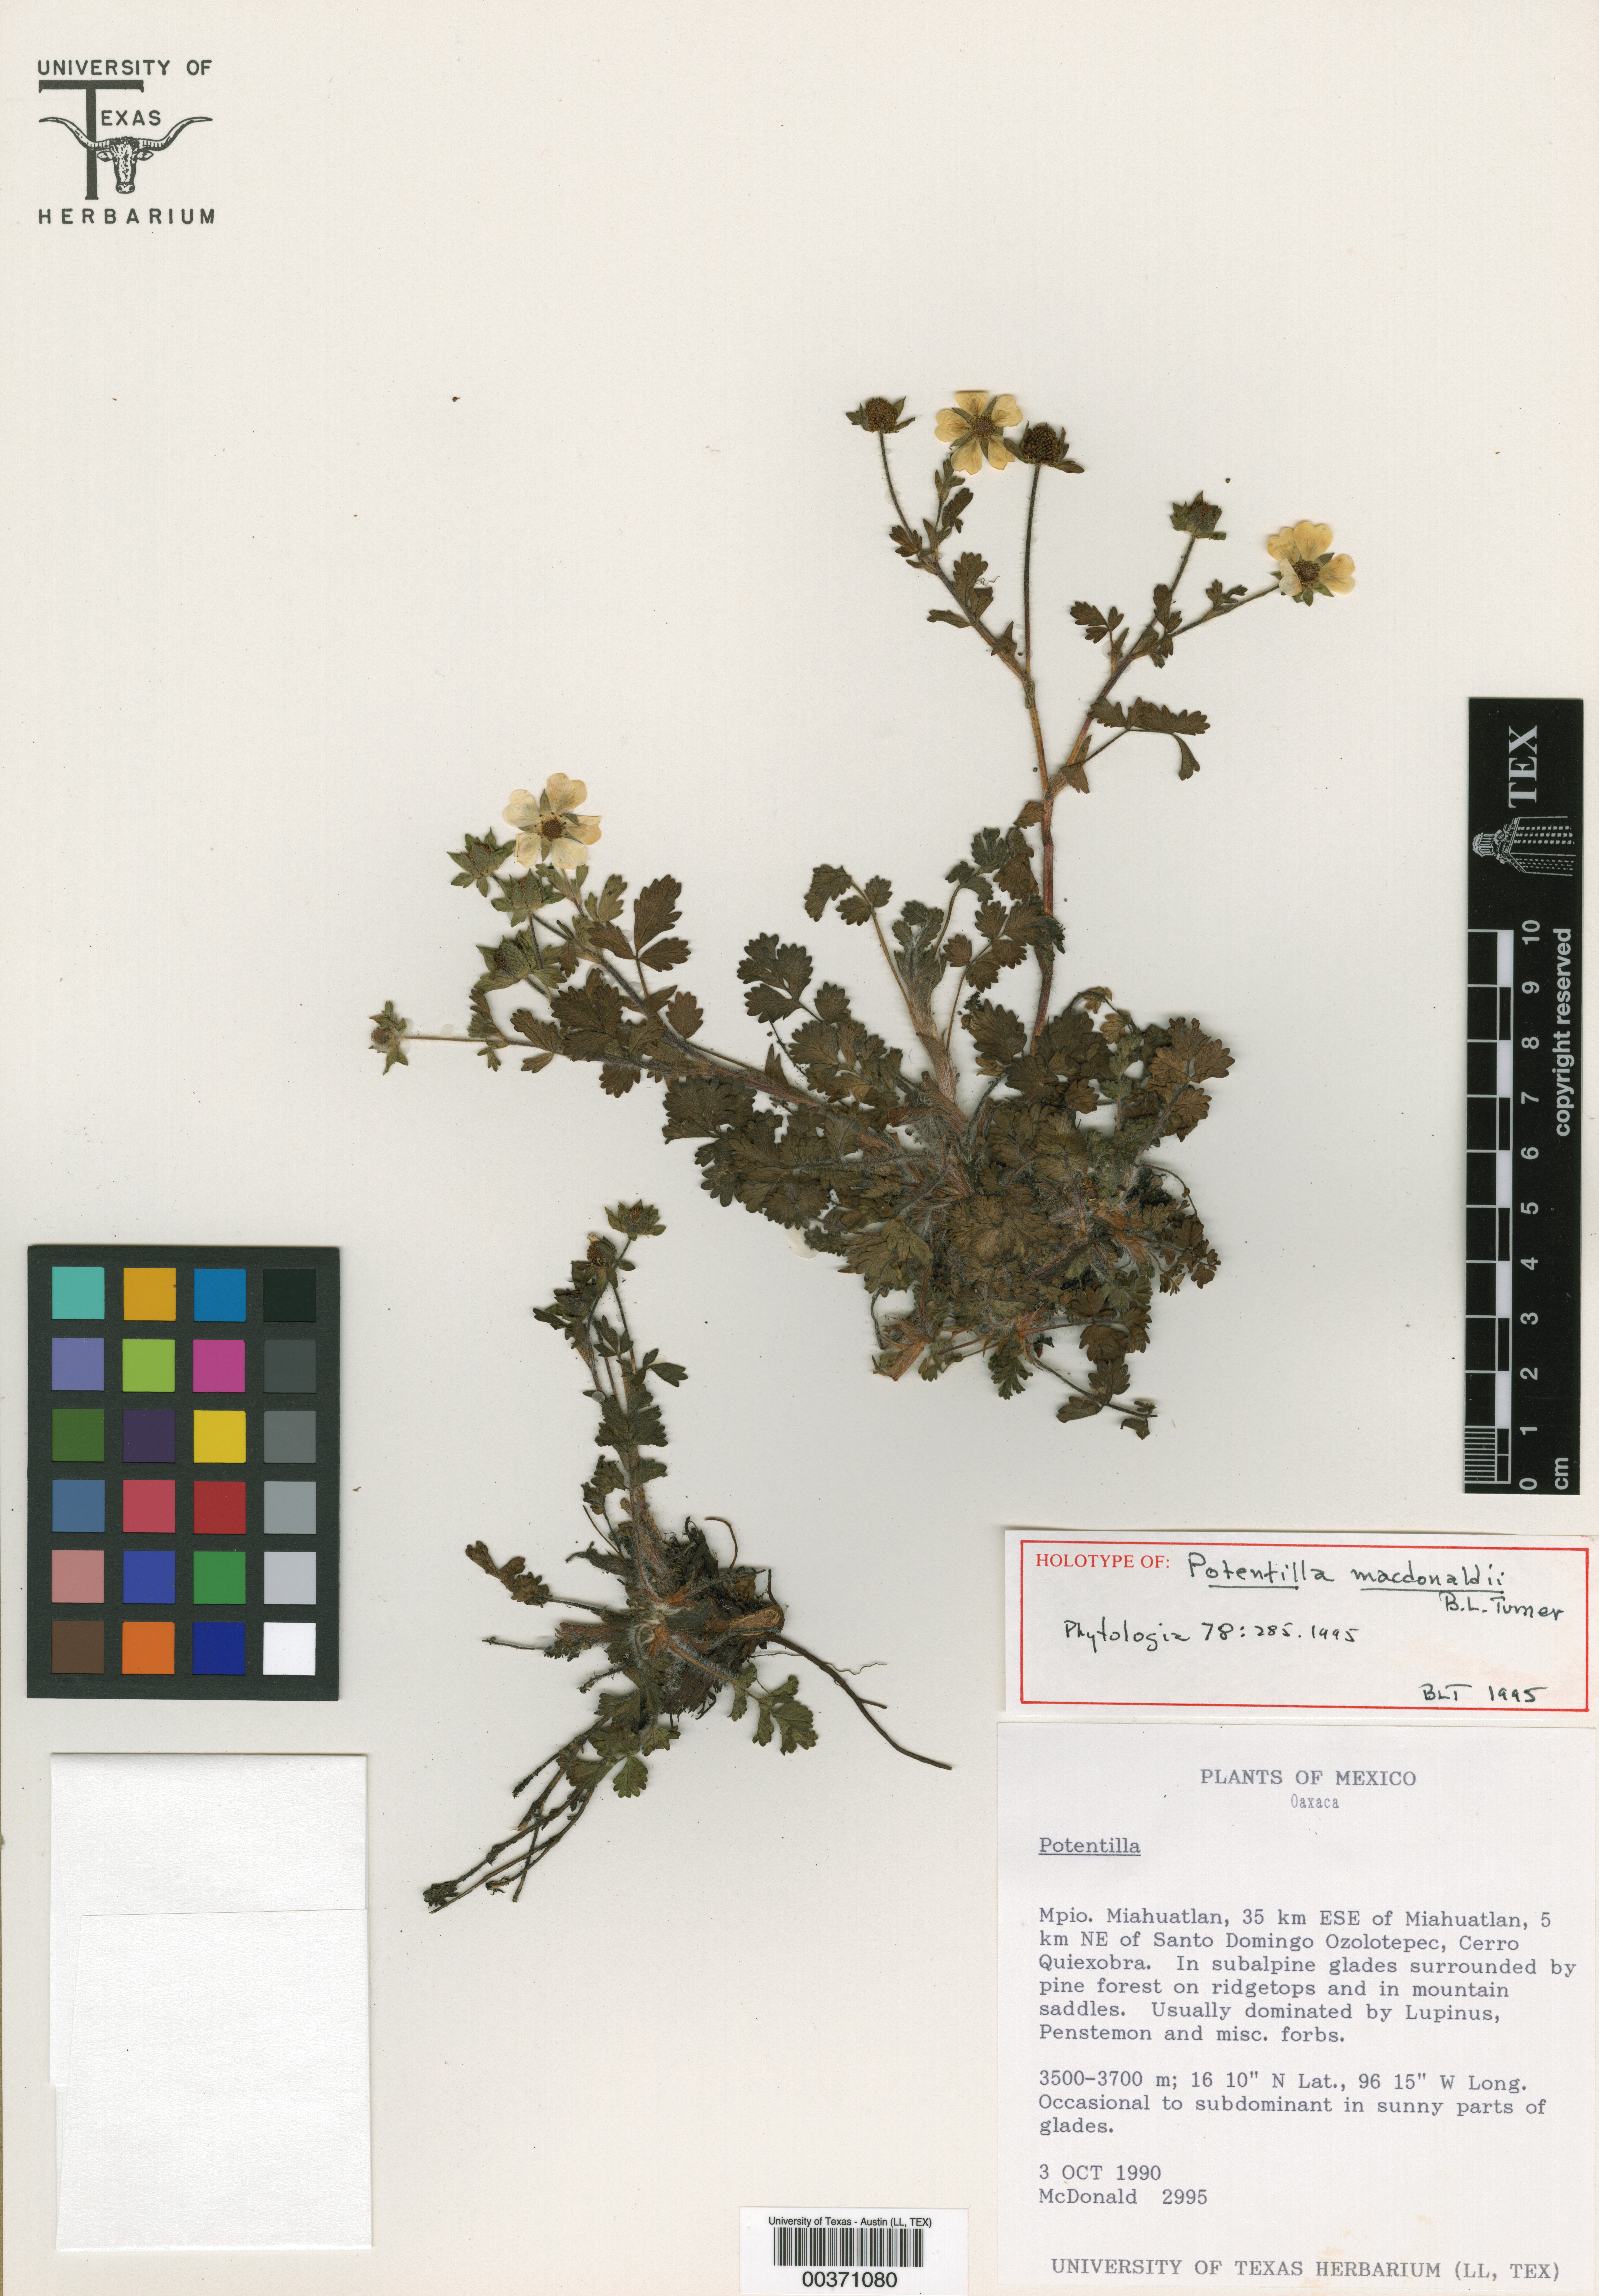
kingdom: Plantae
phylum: Tracheophyta
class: Magnoliopsida
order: Malpighiales
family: Hypericaceae
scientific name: Hypericaceae
